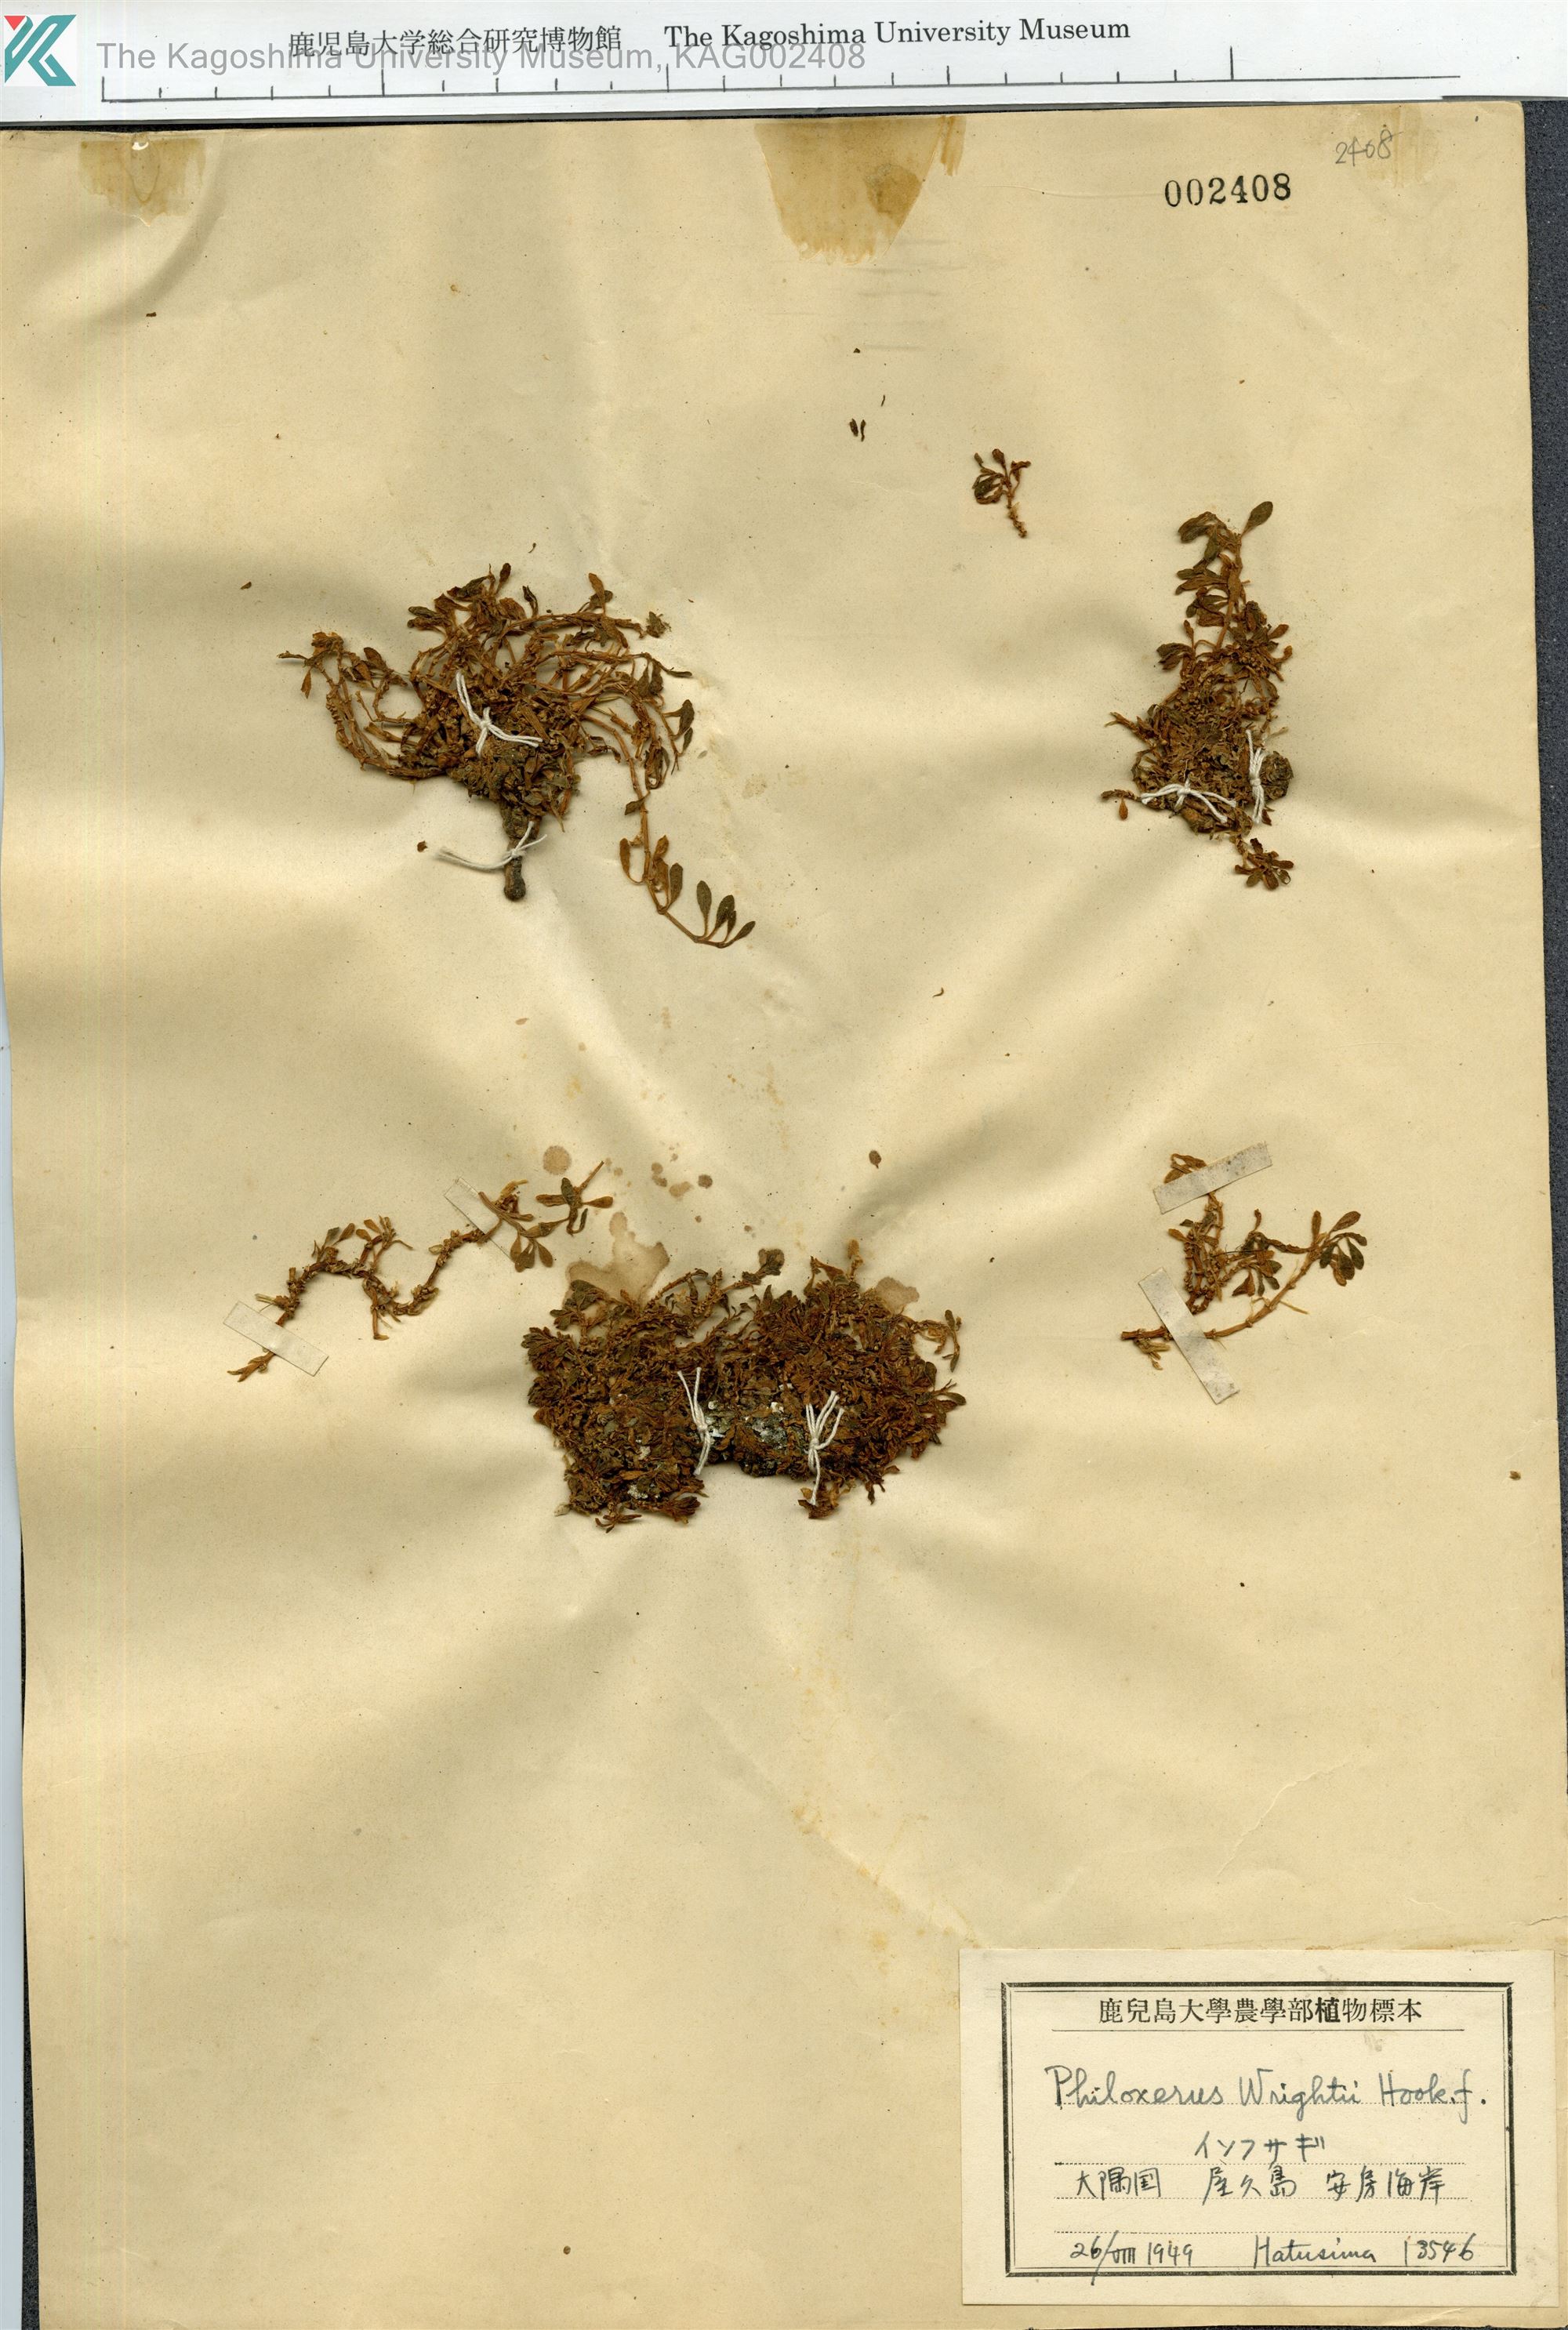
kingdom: Plantae
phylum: Tracheophyta
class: Magnoliopsida
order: Caryophyllales
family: Amaranthaceae
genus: Gomphrena
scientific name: Gomphrena wrightii
